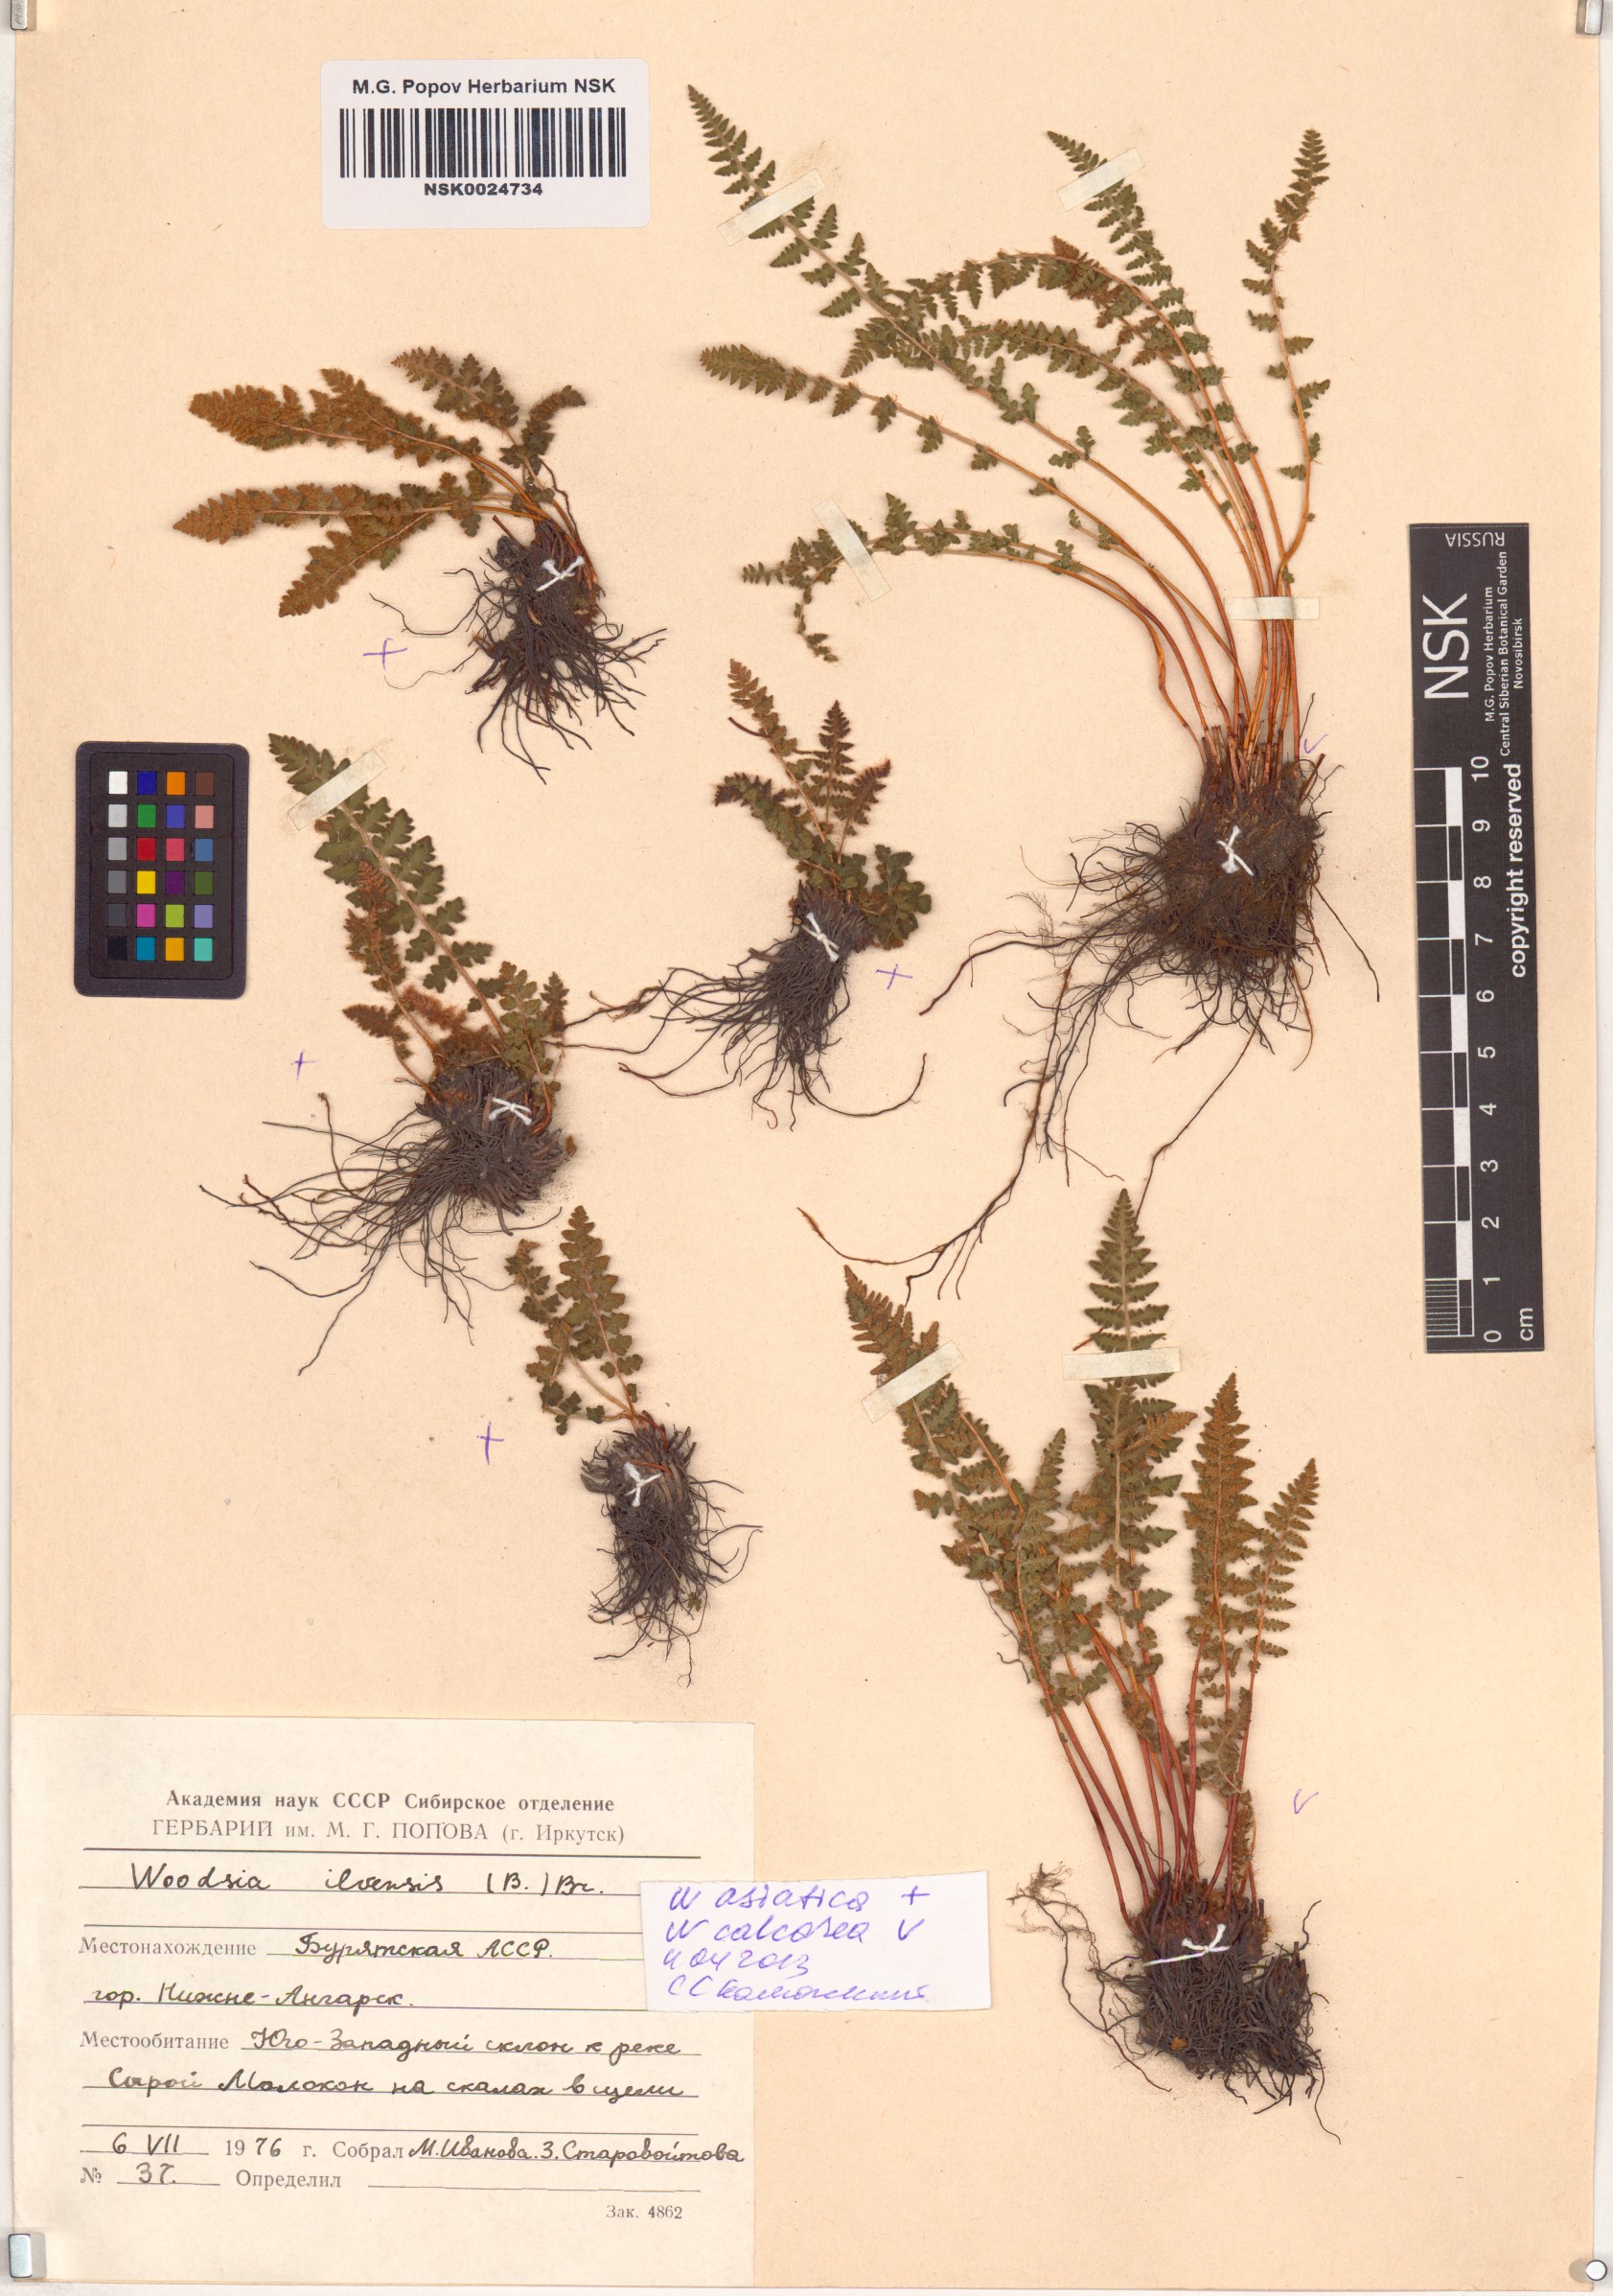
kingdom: Plantae
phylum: Tracheophyta
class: Polypodiopsida
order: Polypodiales
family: Woodsiaceae
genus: Woodsia
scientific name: Woodsia asiatica
